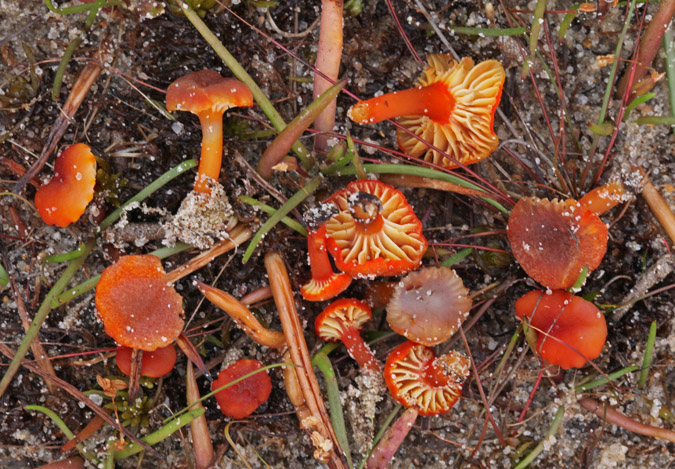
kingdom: Fungi
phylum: Basidiomycota
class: Agaricomycetes
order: Agaricales
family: Hygrophoraceae
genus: Hygrocybe
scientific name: Hygrocybe coccineocrenata
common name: tørvemos-vokshat
